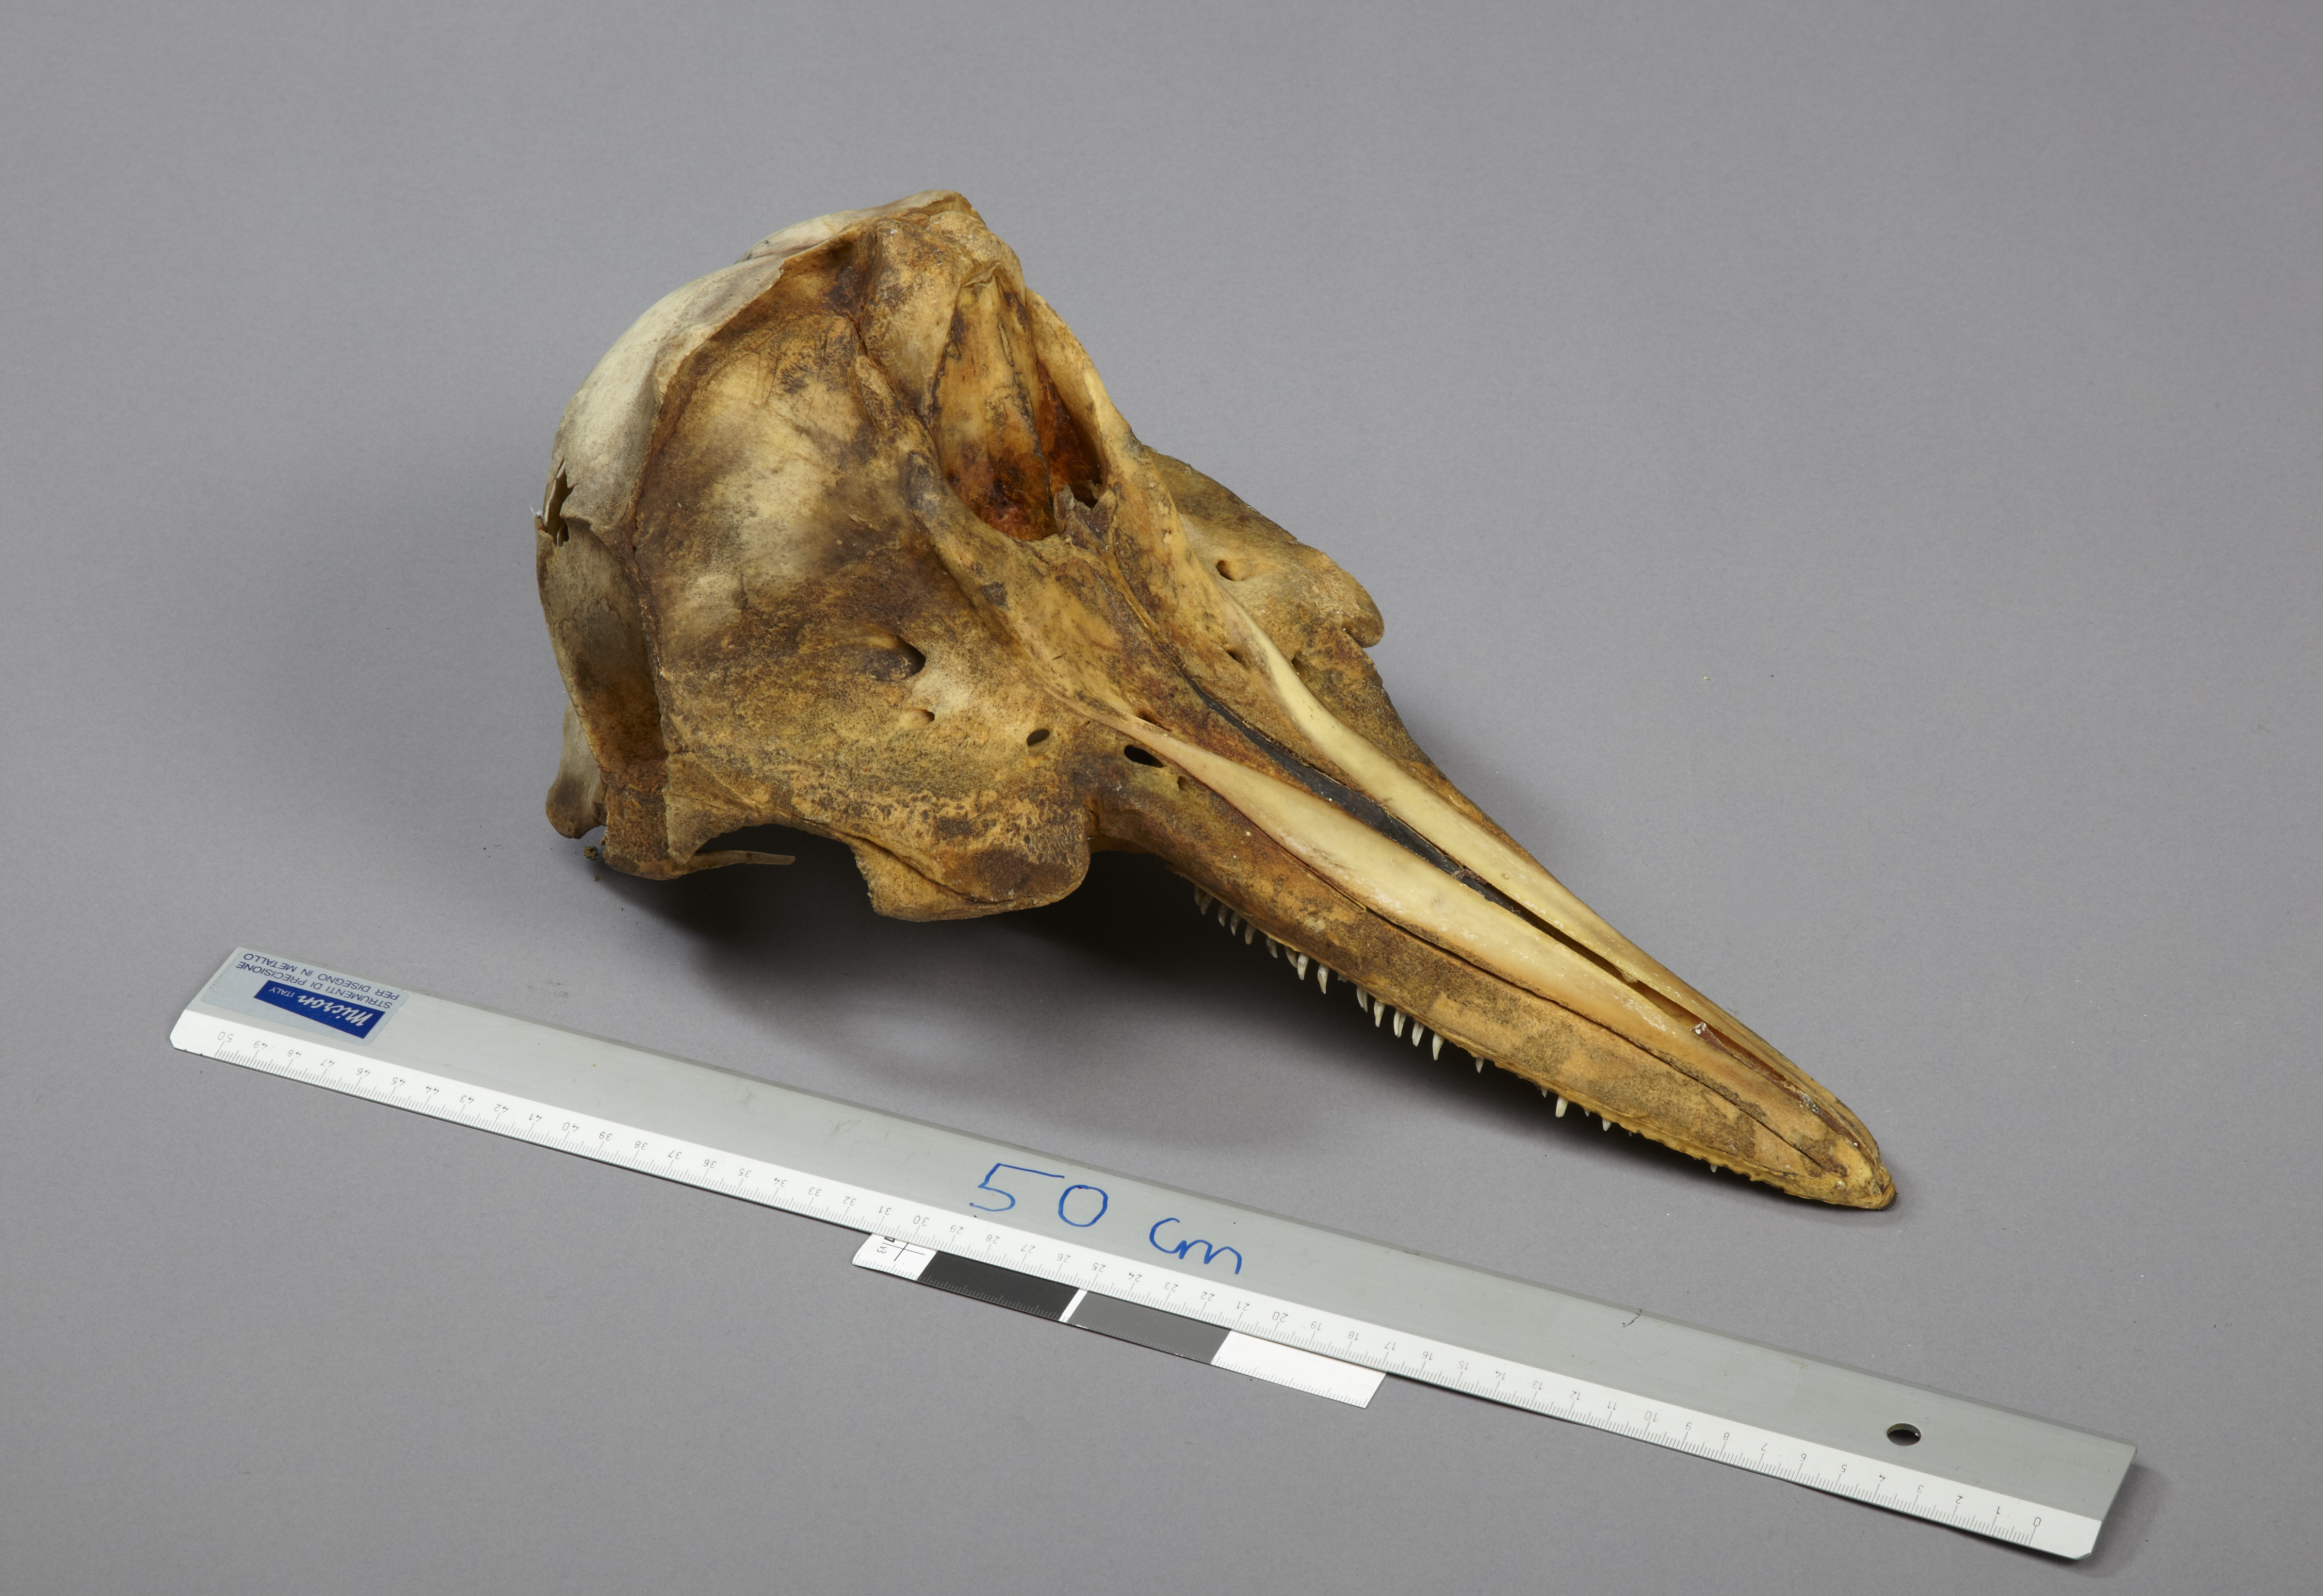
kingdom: Animalia
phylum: Chordata
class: Mammalia
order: Cetacea
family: Delphinidae
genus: Lagenorhynchus
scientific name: Lagenorhynchus acutus
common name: Atlantic white-sided dolphin
